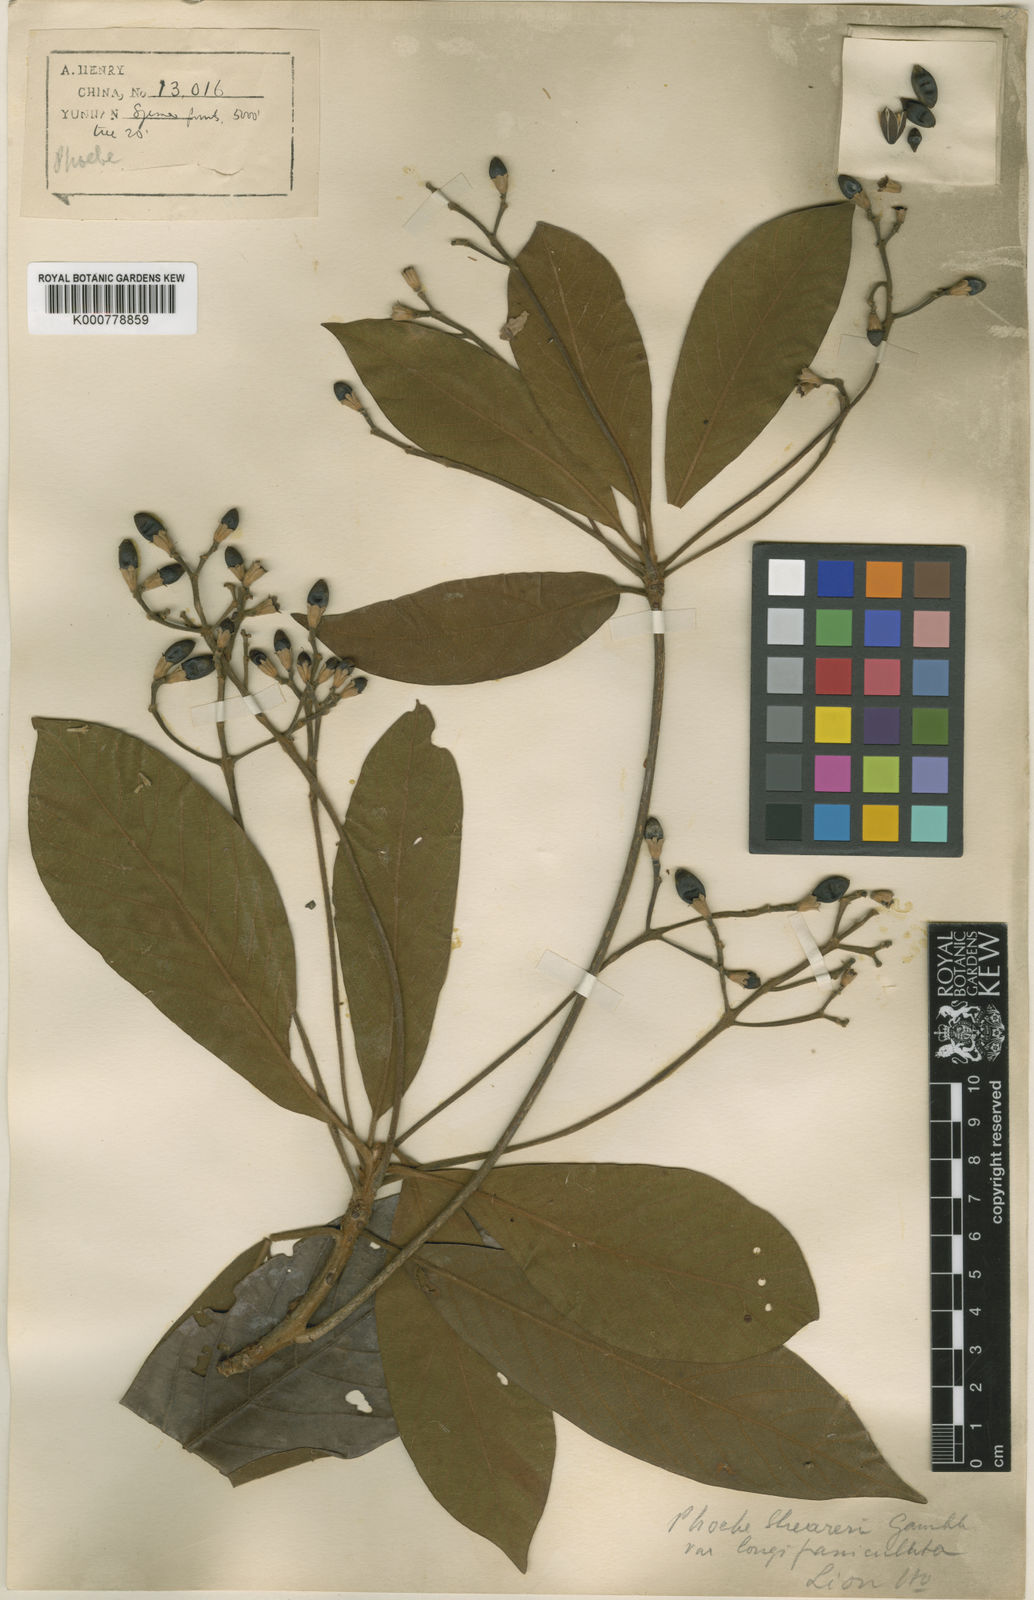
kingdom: Plantae
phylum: Tracheophyta
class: Magnoliopsida
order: Laurales
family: Lauraceae
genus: Phoebe
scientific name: Phoebe sheareri
